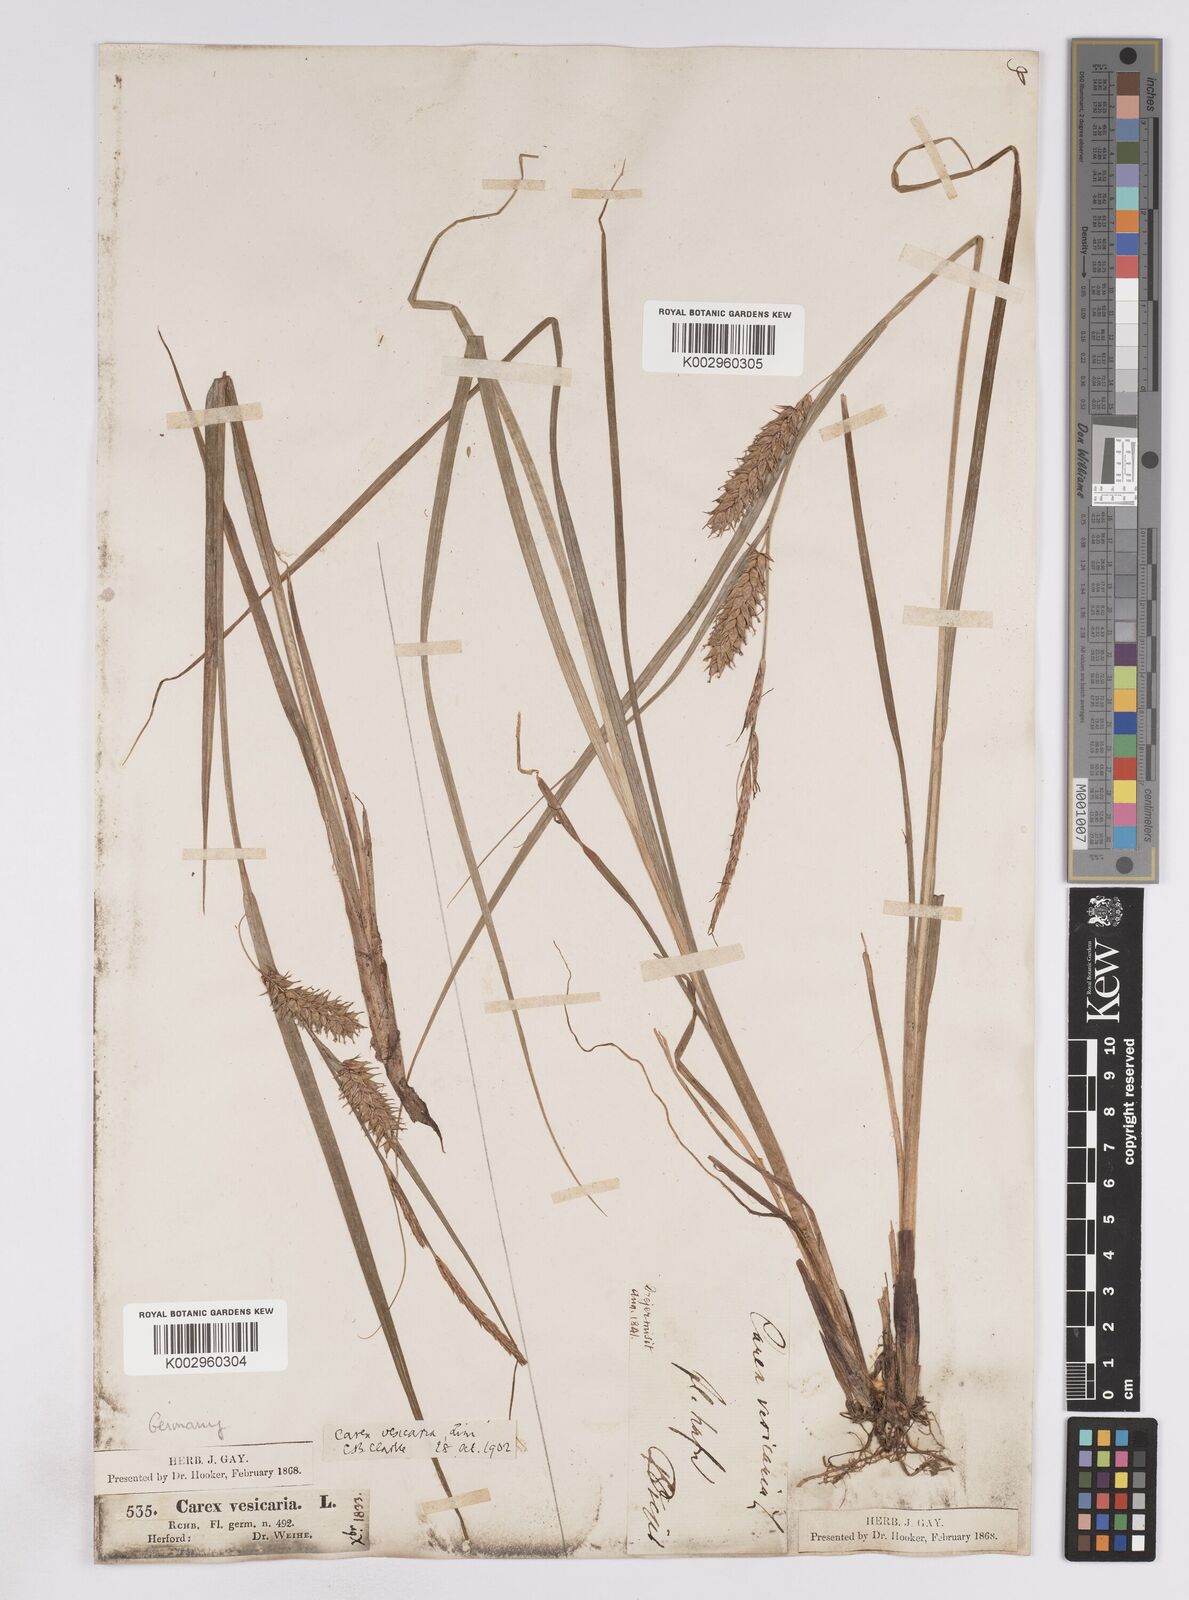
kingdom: Plantae
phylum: Tracheophyta
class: Liliopsida
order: Poales
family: Cyperaceae
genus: Carex
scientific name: Carex vesicaria
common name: Bladder-sedge
